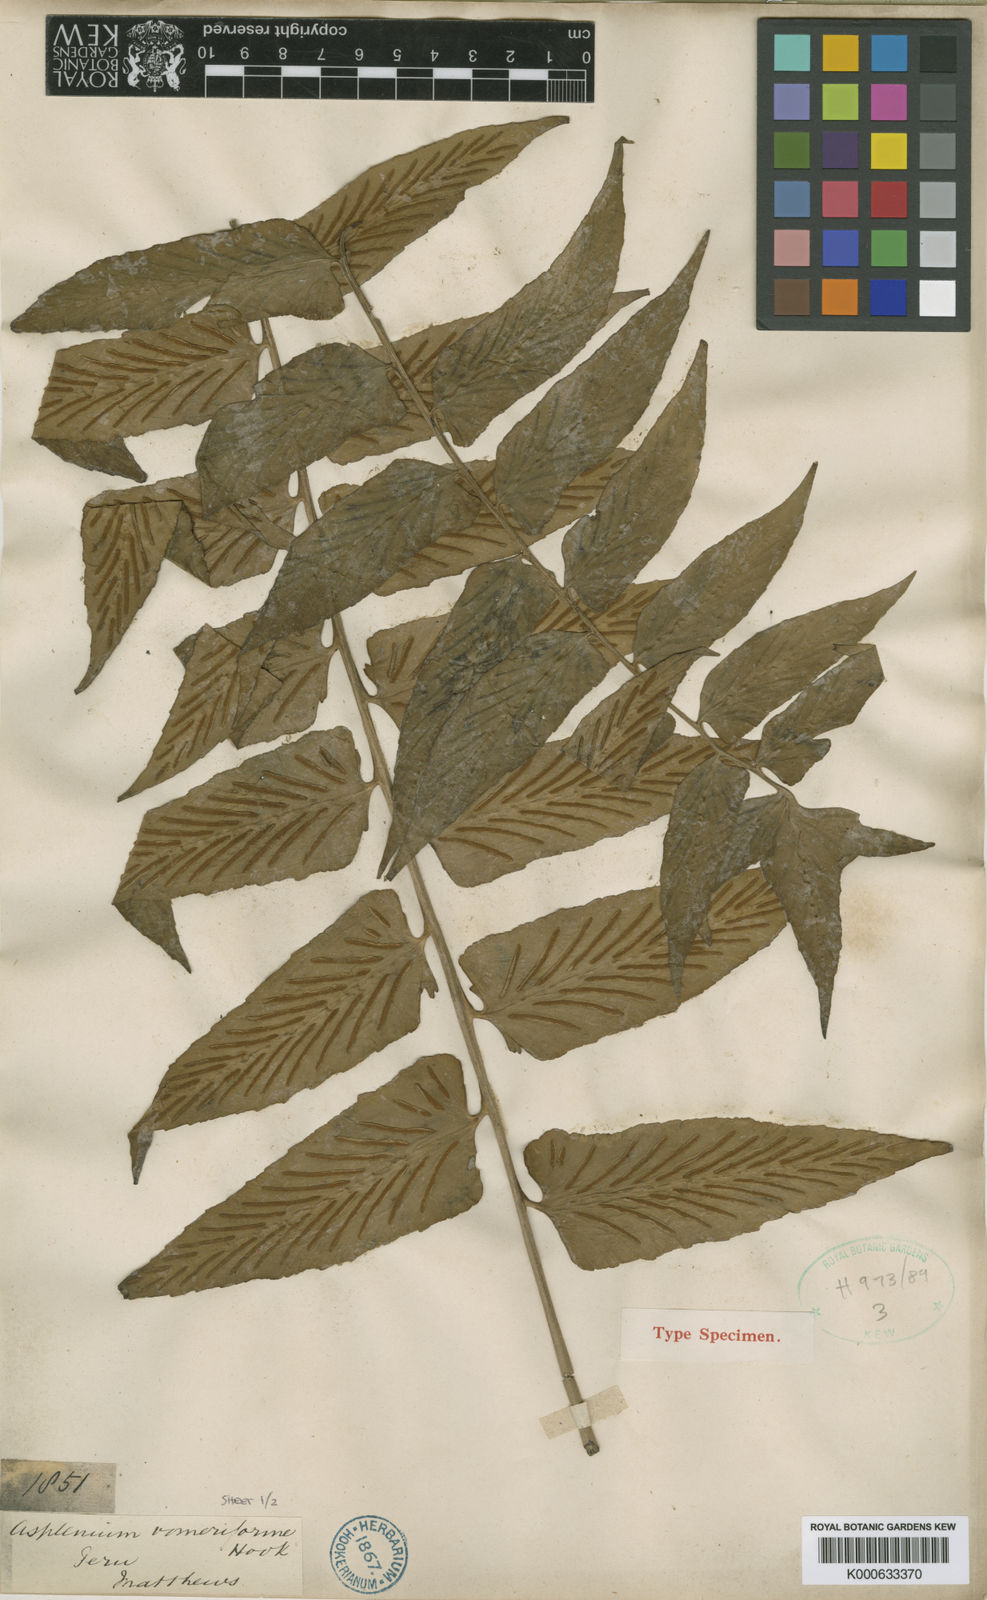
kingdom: Plantae
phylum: Tracheophyta
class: Polypodiopsida
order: Polypodiales
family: Aspleniaceae
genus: Asplenium
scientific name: Asplenium vomeriforme
